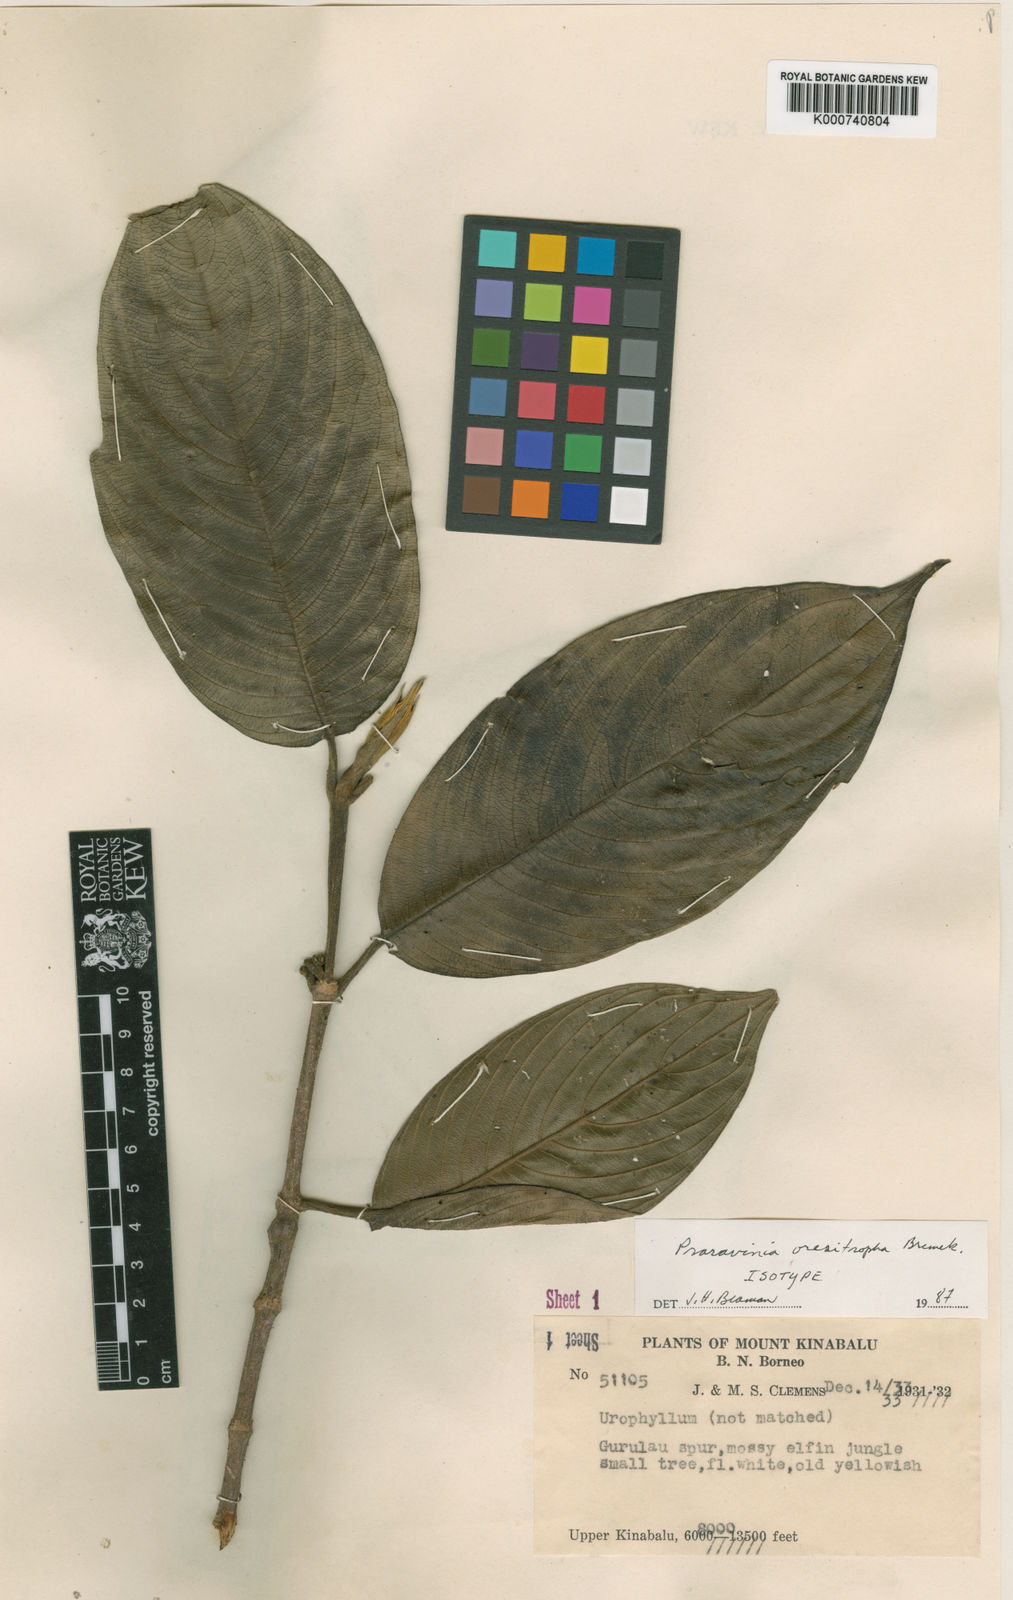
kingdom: Plantae
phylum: Tracheophyta
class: Magnoliopsida
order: Gentianales
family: Rubiaceae
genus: Urophyllum
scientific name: Urophyllum oresitrophum
